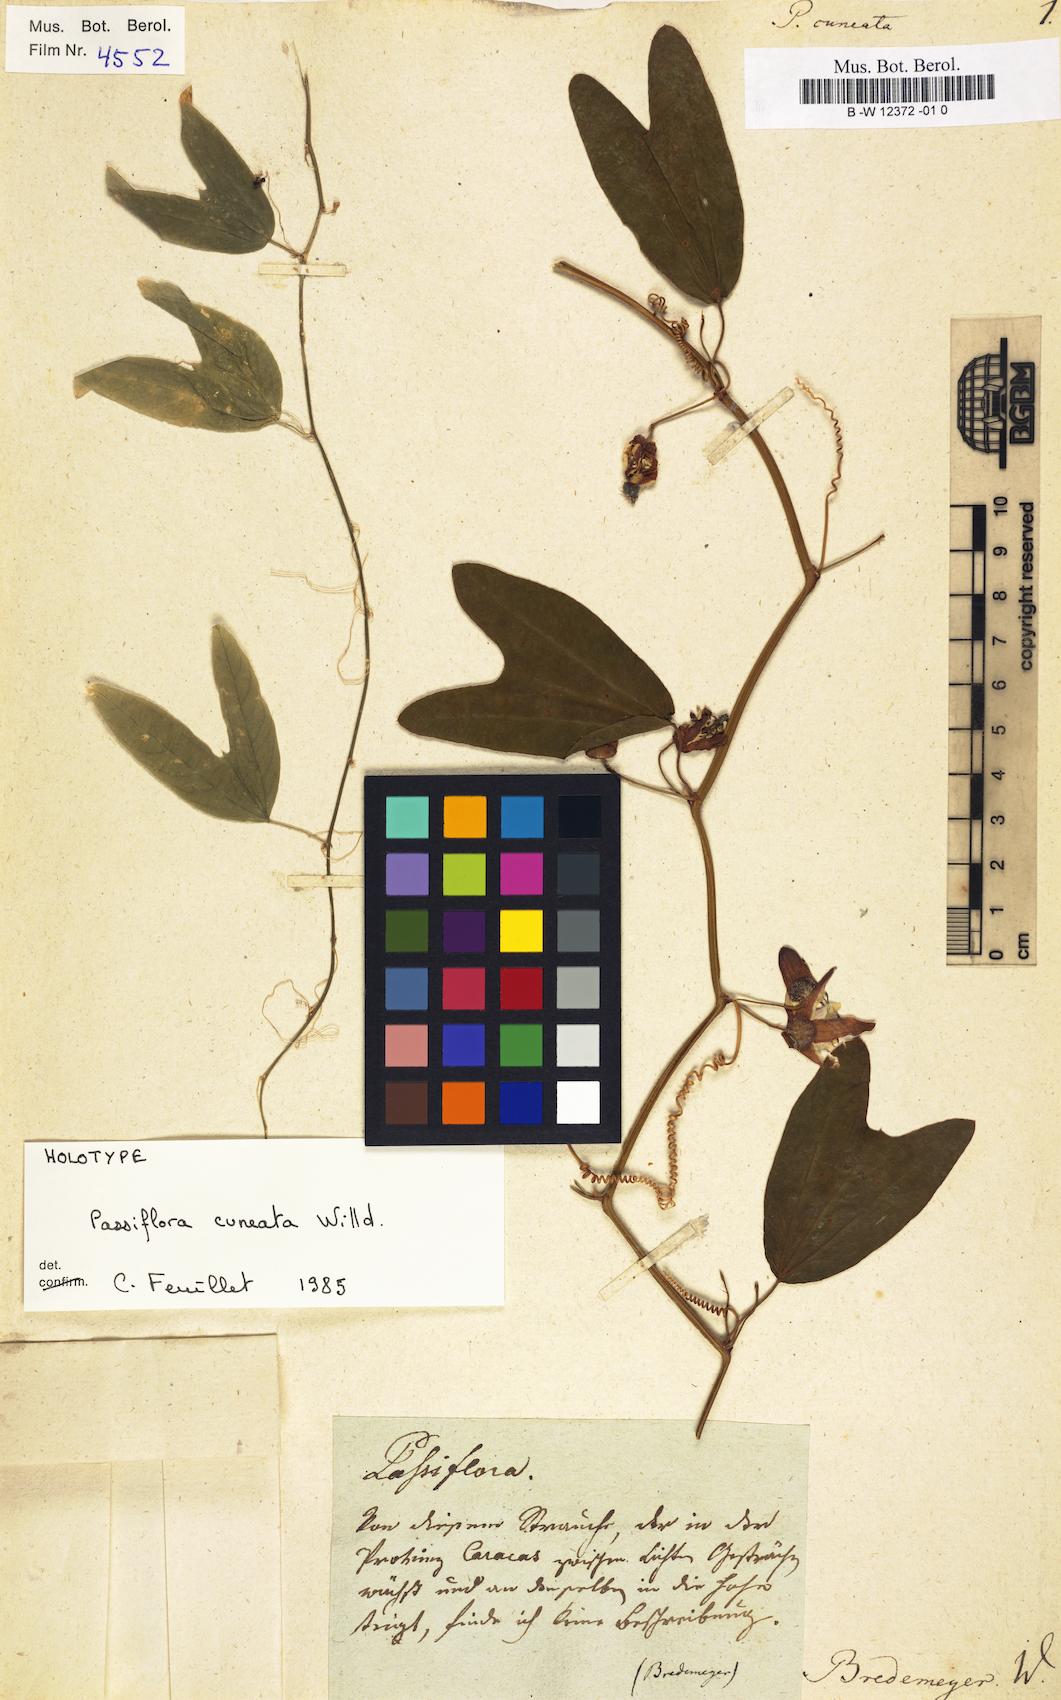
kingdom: Plantae
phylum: Tracheophyta
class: Magnoliopsida
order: Malpighiales
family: Passifloraceae
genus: Passiflora
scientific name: Passiflora cuneata
